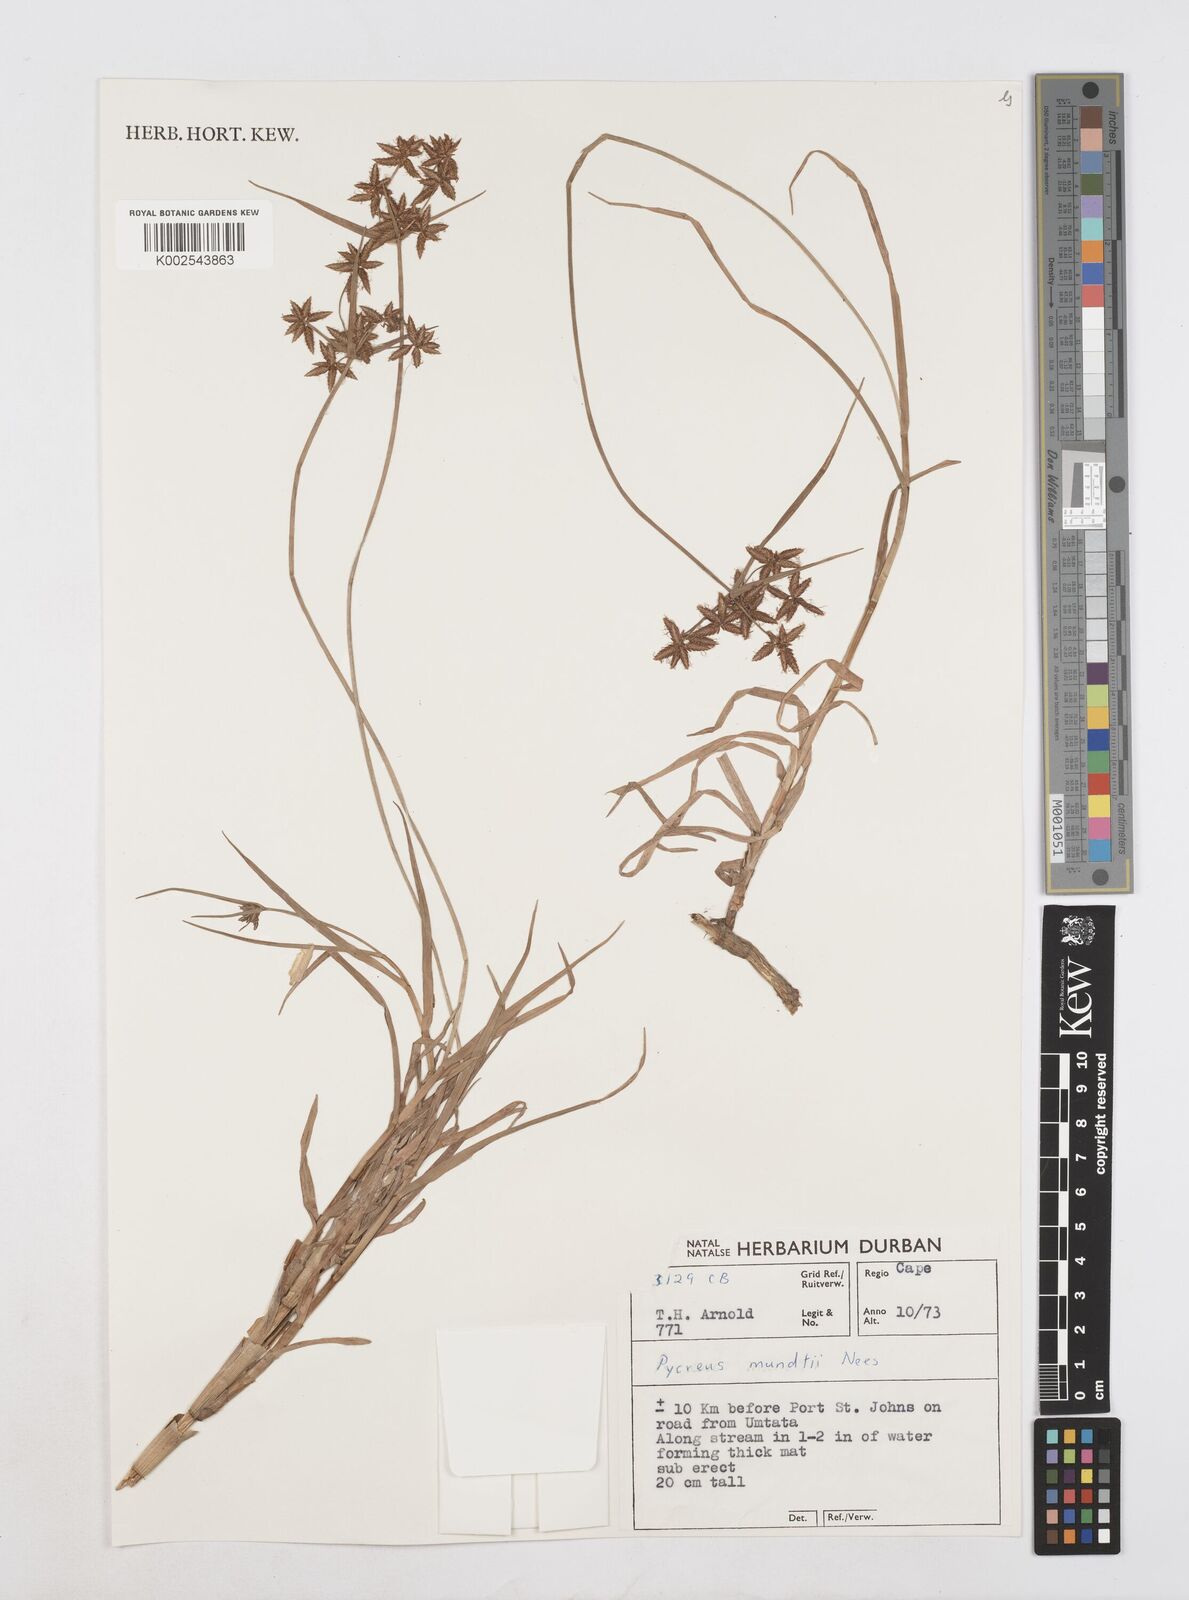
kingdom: Plantae
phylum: Tracheophyta
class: Liliopsida
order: Poales
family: Cyperaceae
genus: Cyperus
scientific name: Cyperus mundii
